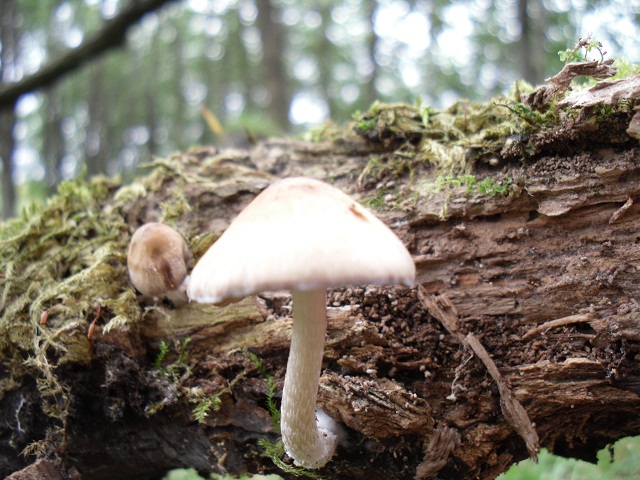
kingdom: Fungi
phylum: Basidiomycota
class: Agaricomycetes
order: Agaricales
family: Psathyrellaceae
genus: Psathyrella
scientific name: Psathyrella olympiana
